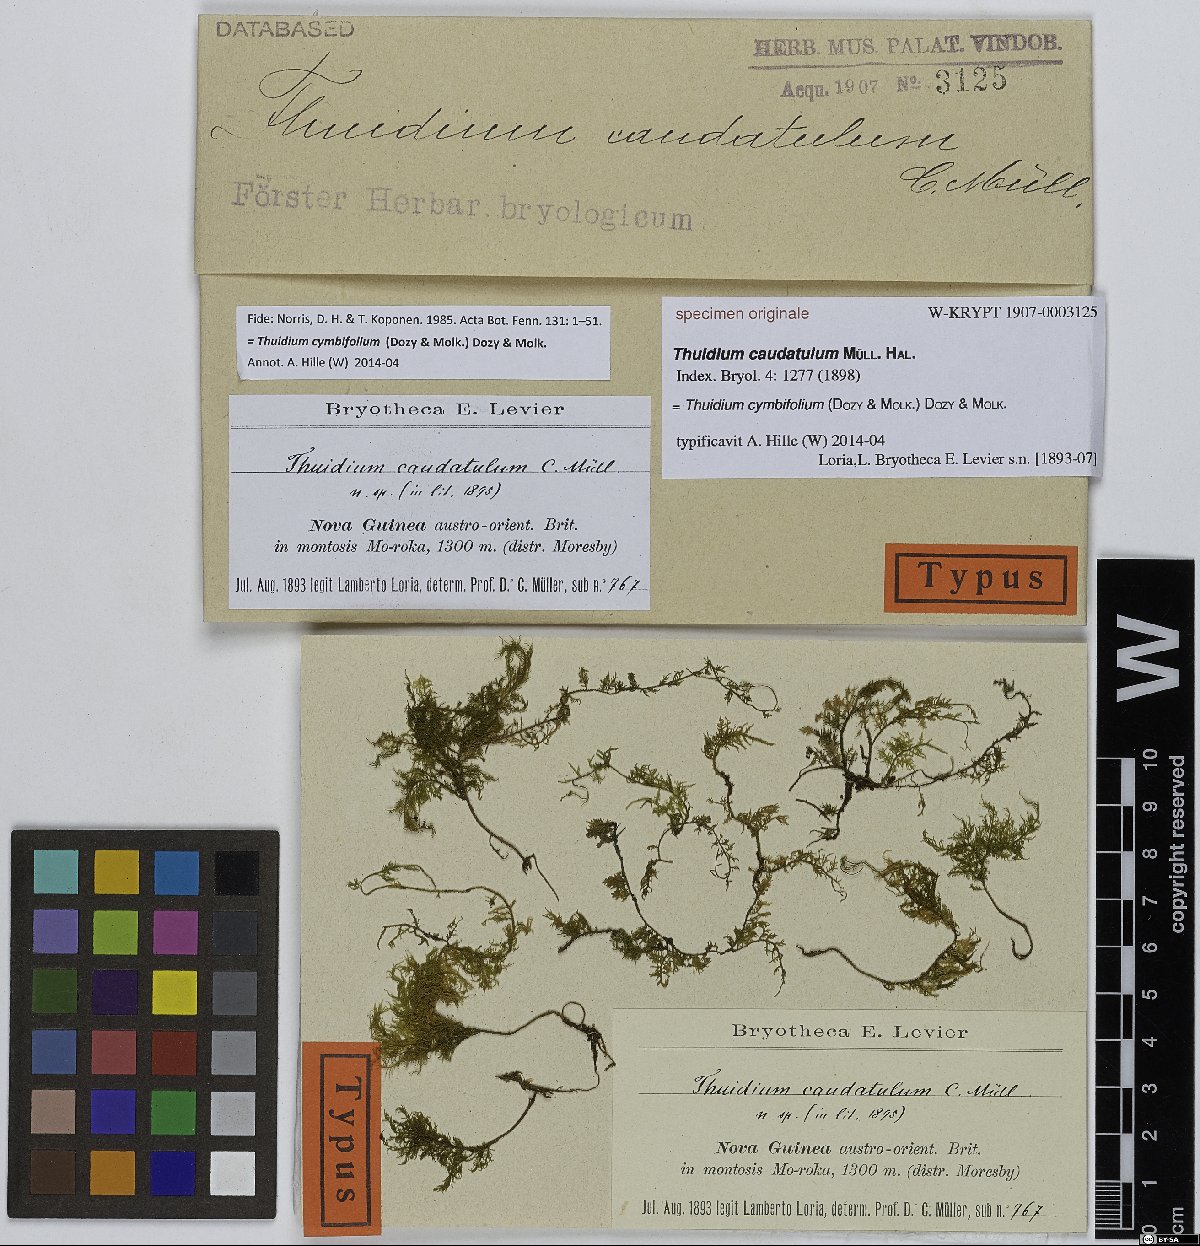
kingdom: Plantae
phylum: Bryophyta
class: Bryopsida
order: Hypnales
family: Thuidiaceae
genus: Thuidium
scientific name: Thuidium cymbifolium
